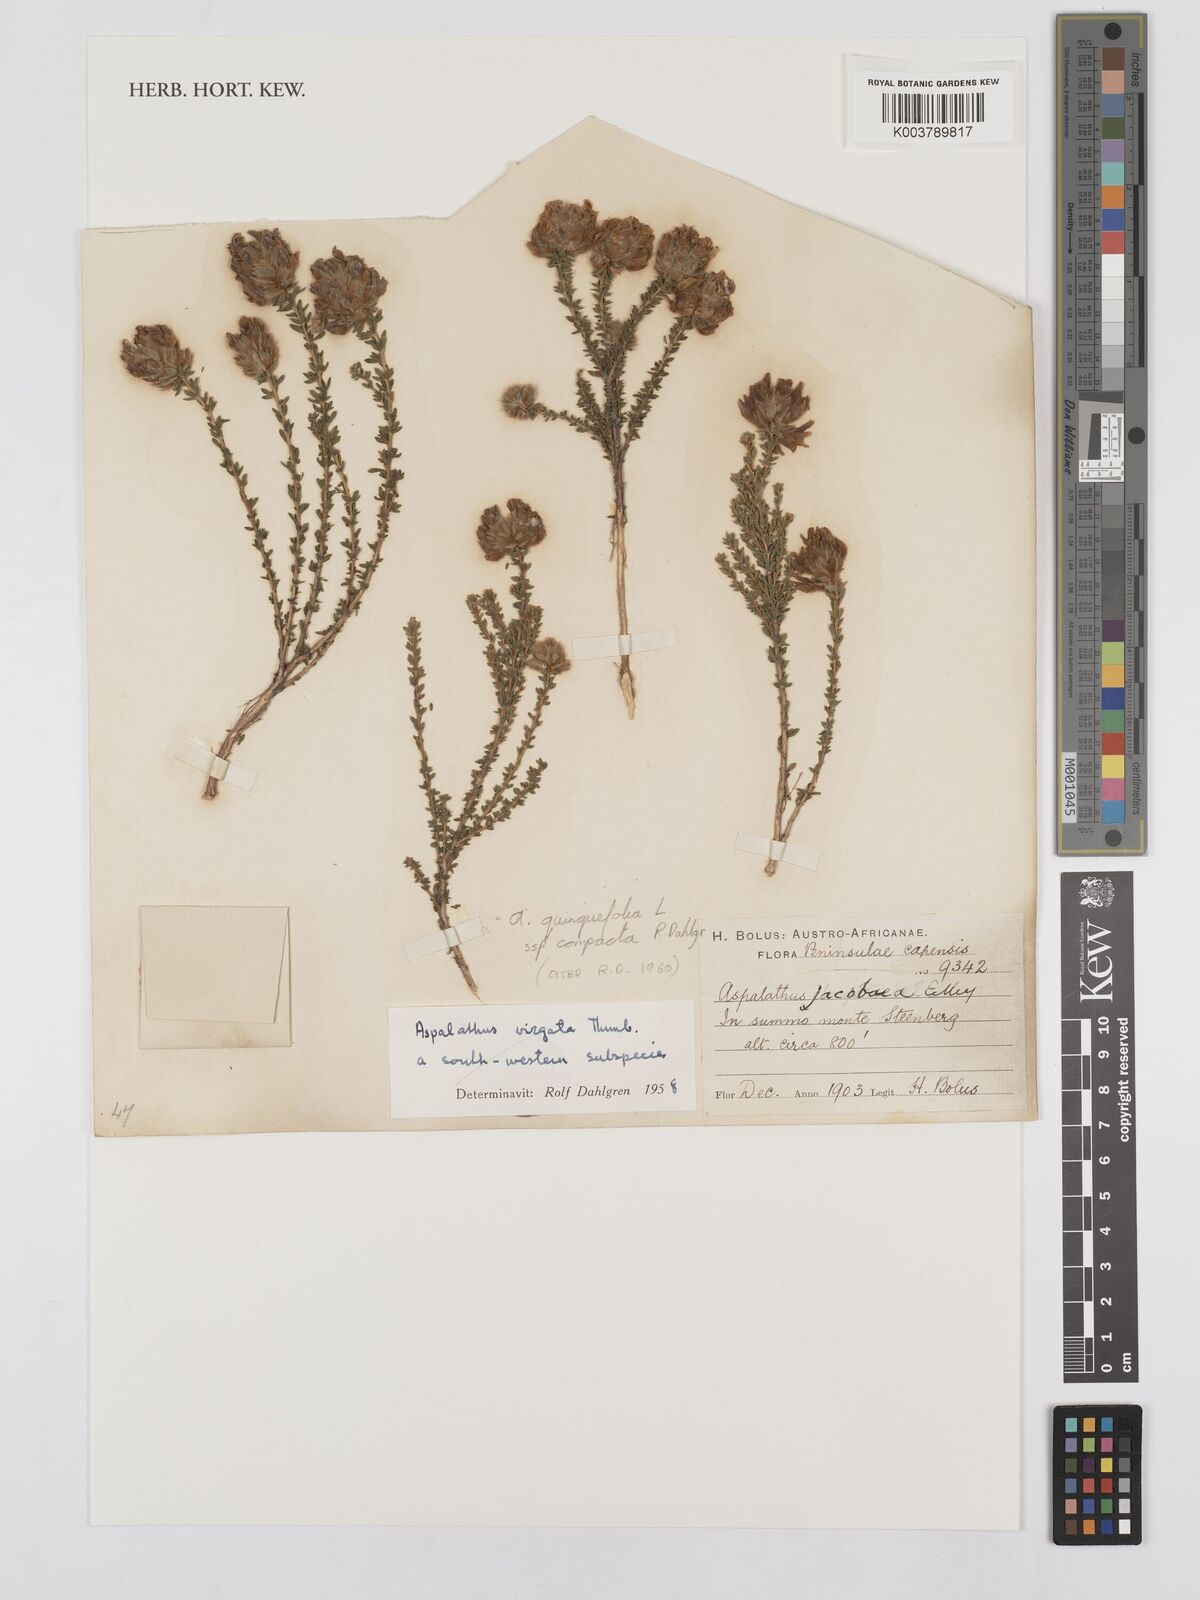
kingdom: Plantae
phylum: Tracheophyta
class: Magnoliopsida
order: Fabales
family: Fabaceae
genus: Aspalathus
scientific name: Aspalathus quinquefolia
